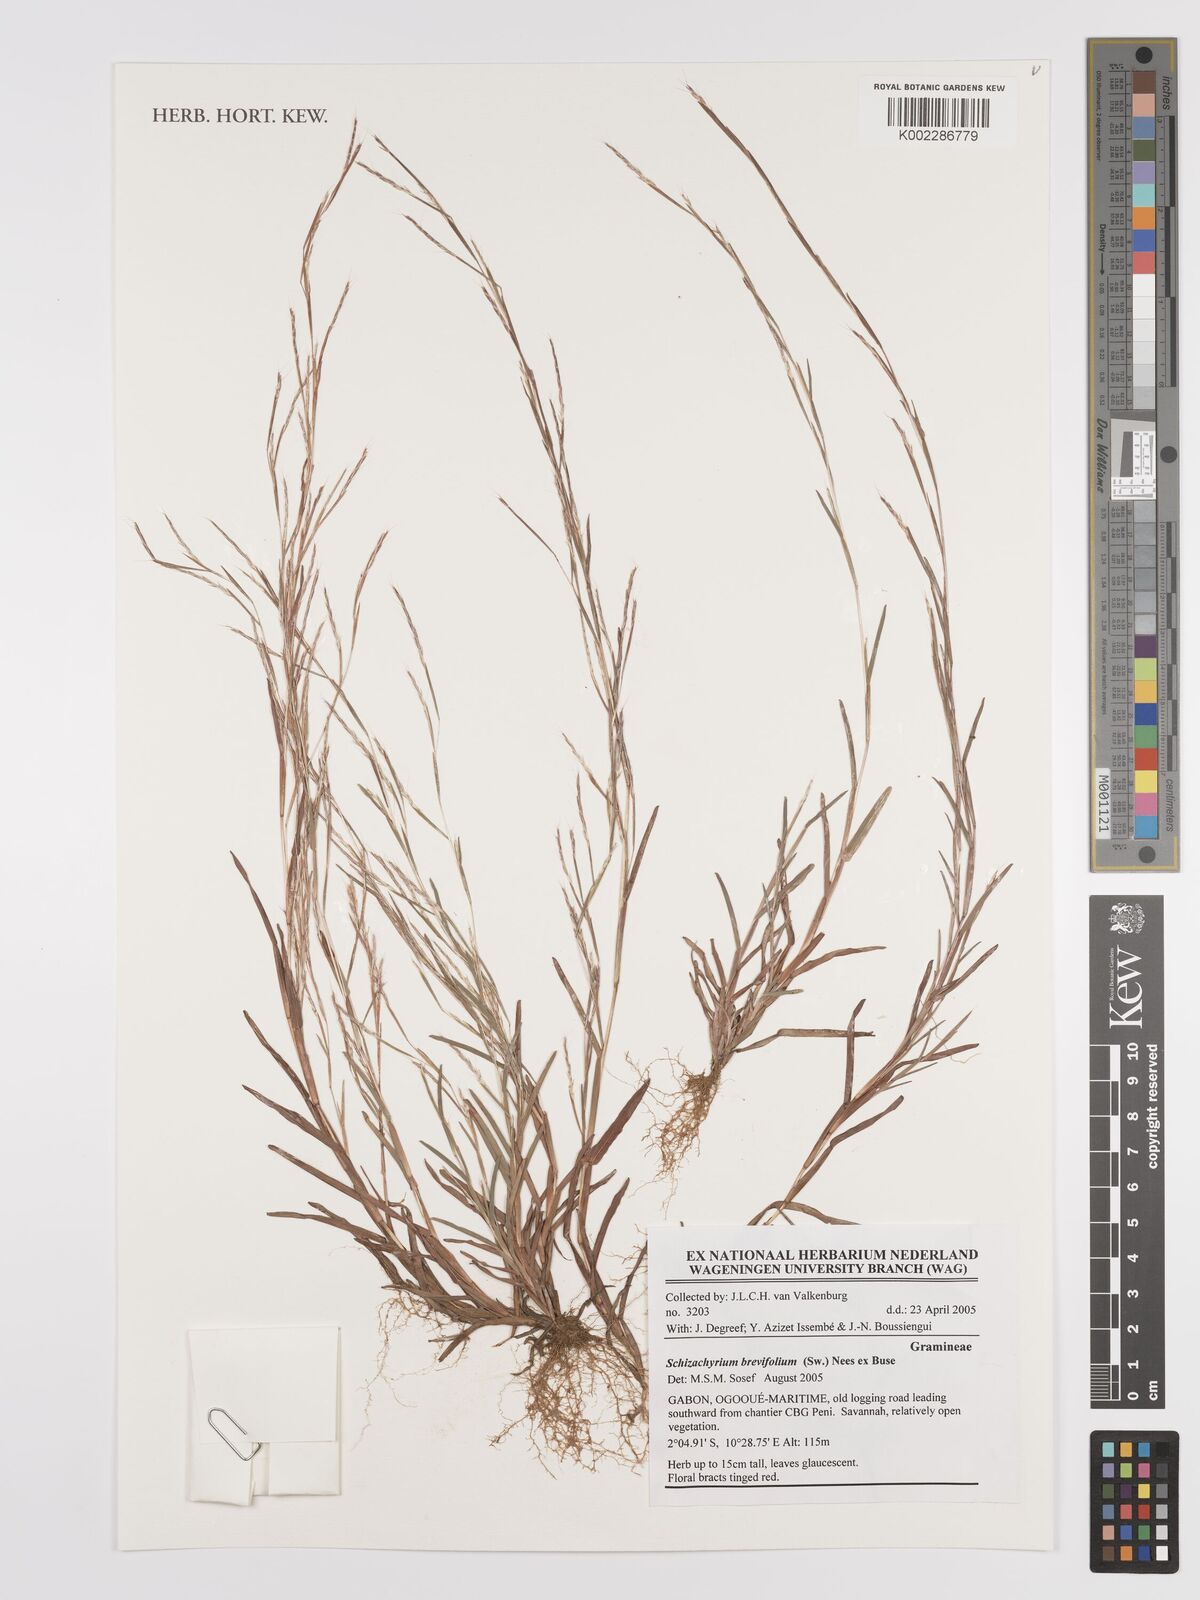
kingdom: Plantae
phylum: Tracheophyta
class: Liliopsida
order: Poales
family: Poaceae
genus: Schizachyrium
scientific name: Schizachyrium brevifolium
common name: Serillo dulce
